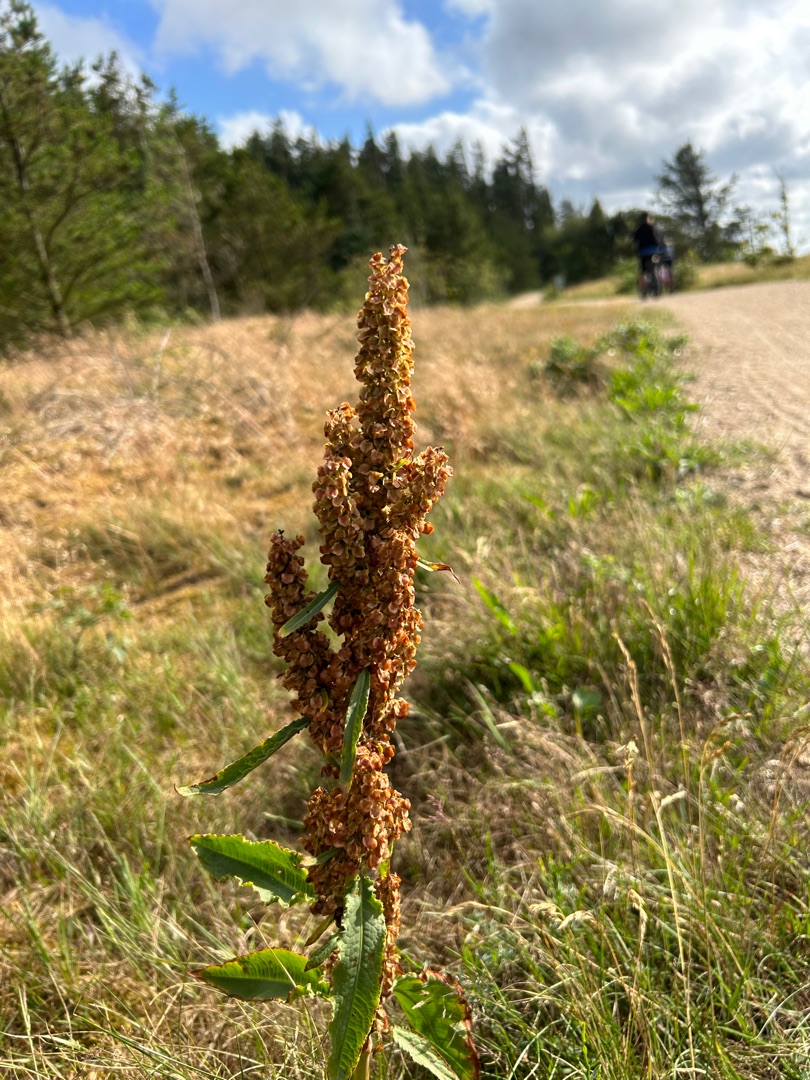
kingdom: Plantae
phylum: Tracheophyta
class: Magnoliopsida
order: Caryophyllales
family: Polygonaceae
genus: Rumex
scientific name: Rumex crispus
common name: Kruset skræppe
